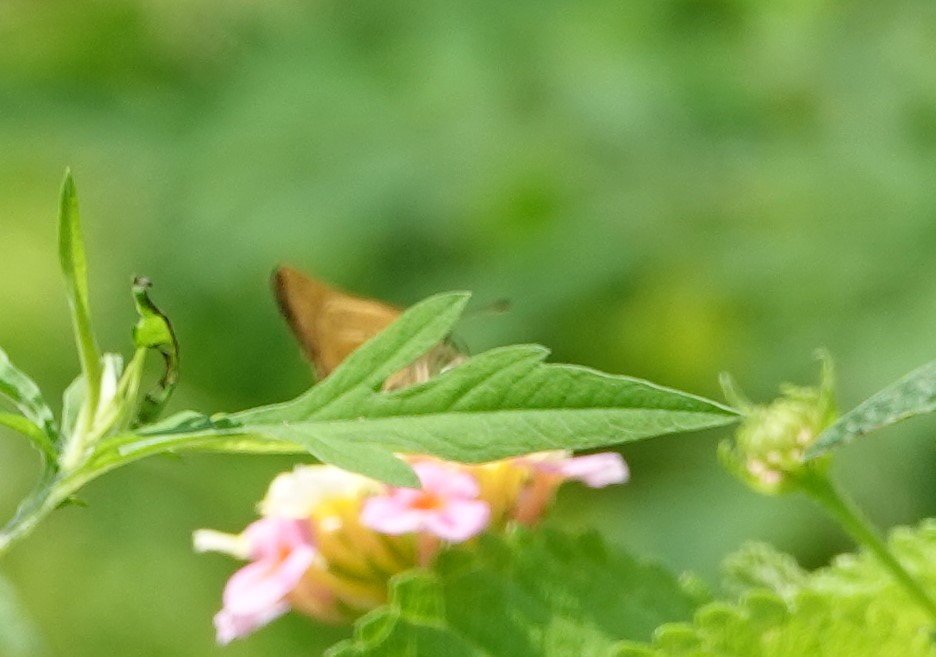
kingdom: Animalia
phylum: Arthropoda
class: Insecta
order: Lepidoptera
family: Hesperiidae
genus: Panoquina
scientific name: Panoquina panoquin
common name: Salt Marsh Skipper
